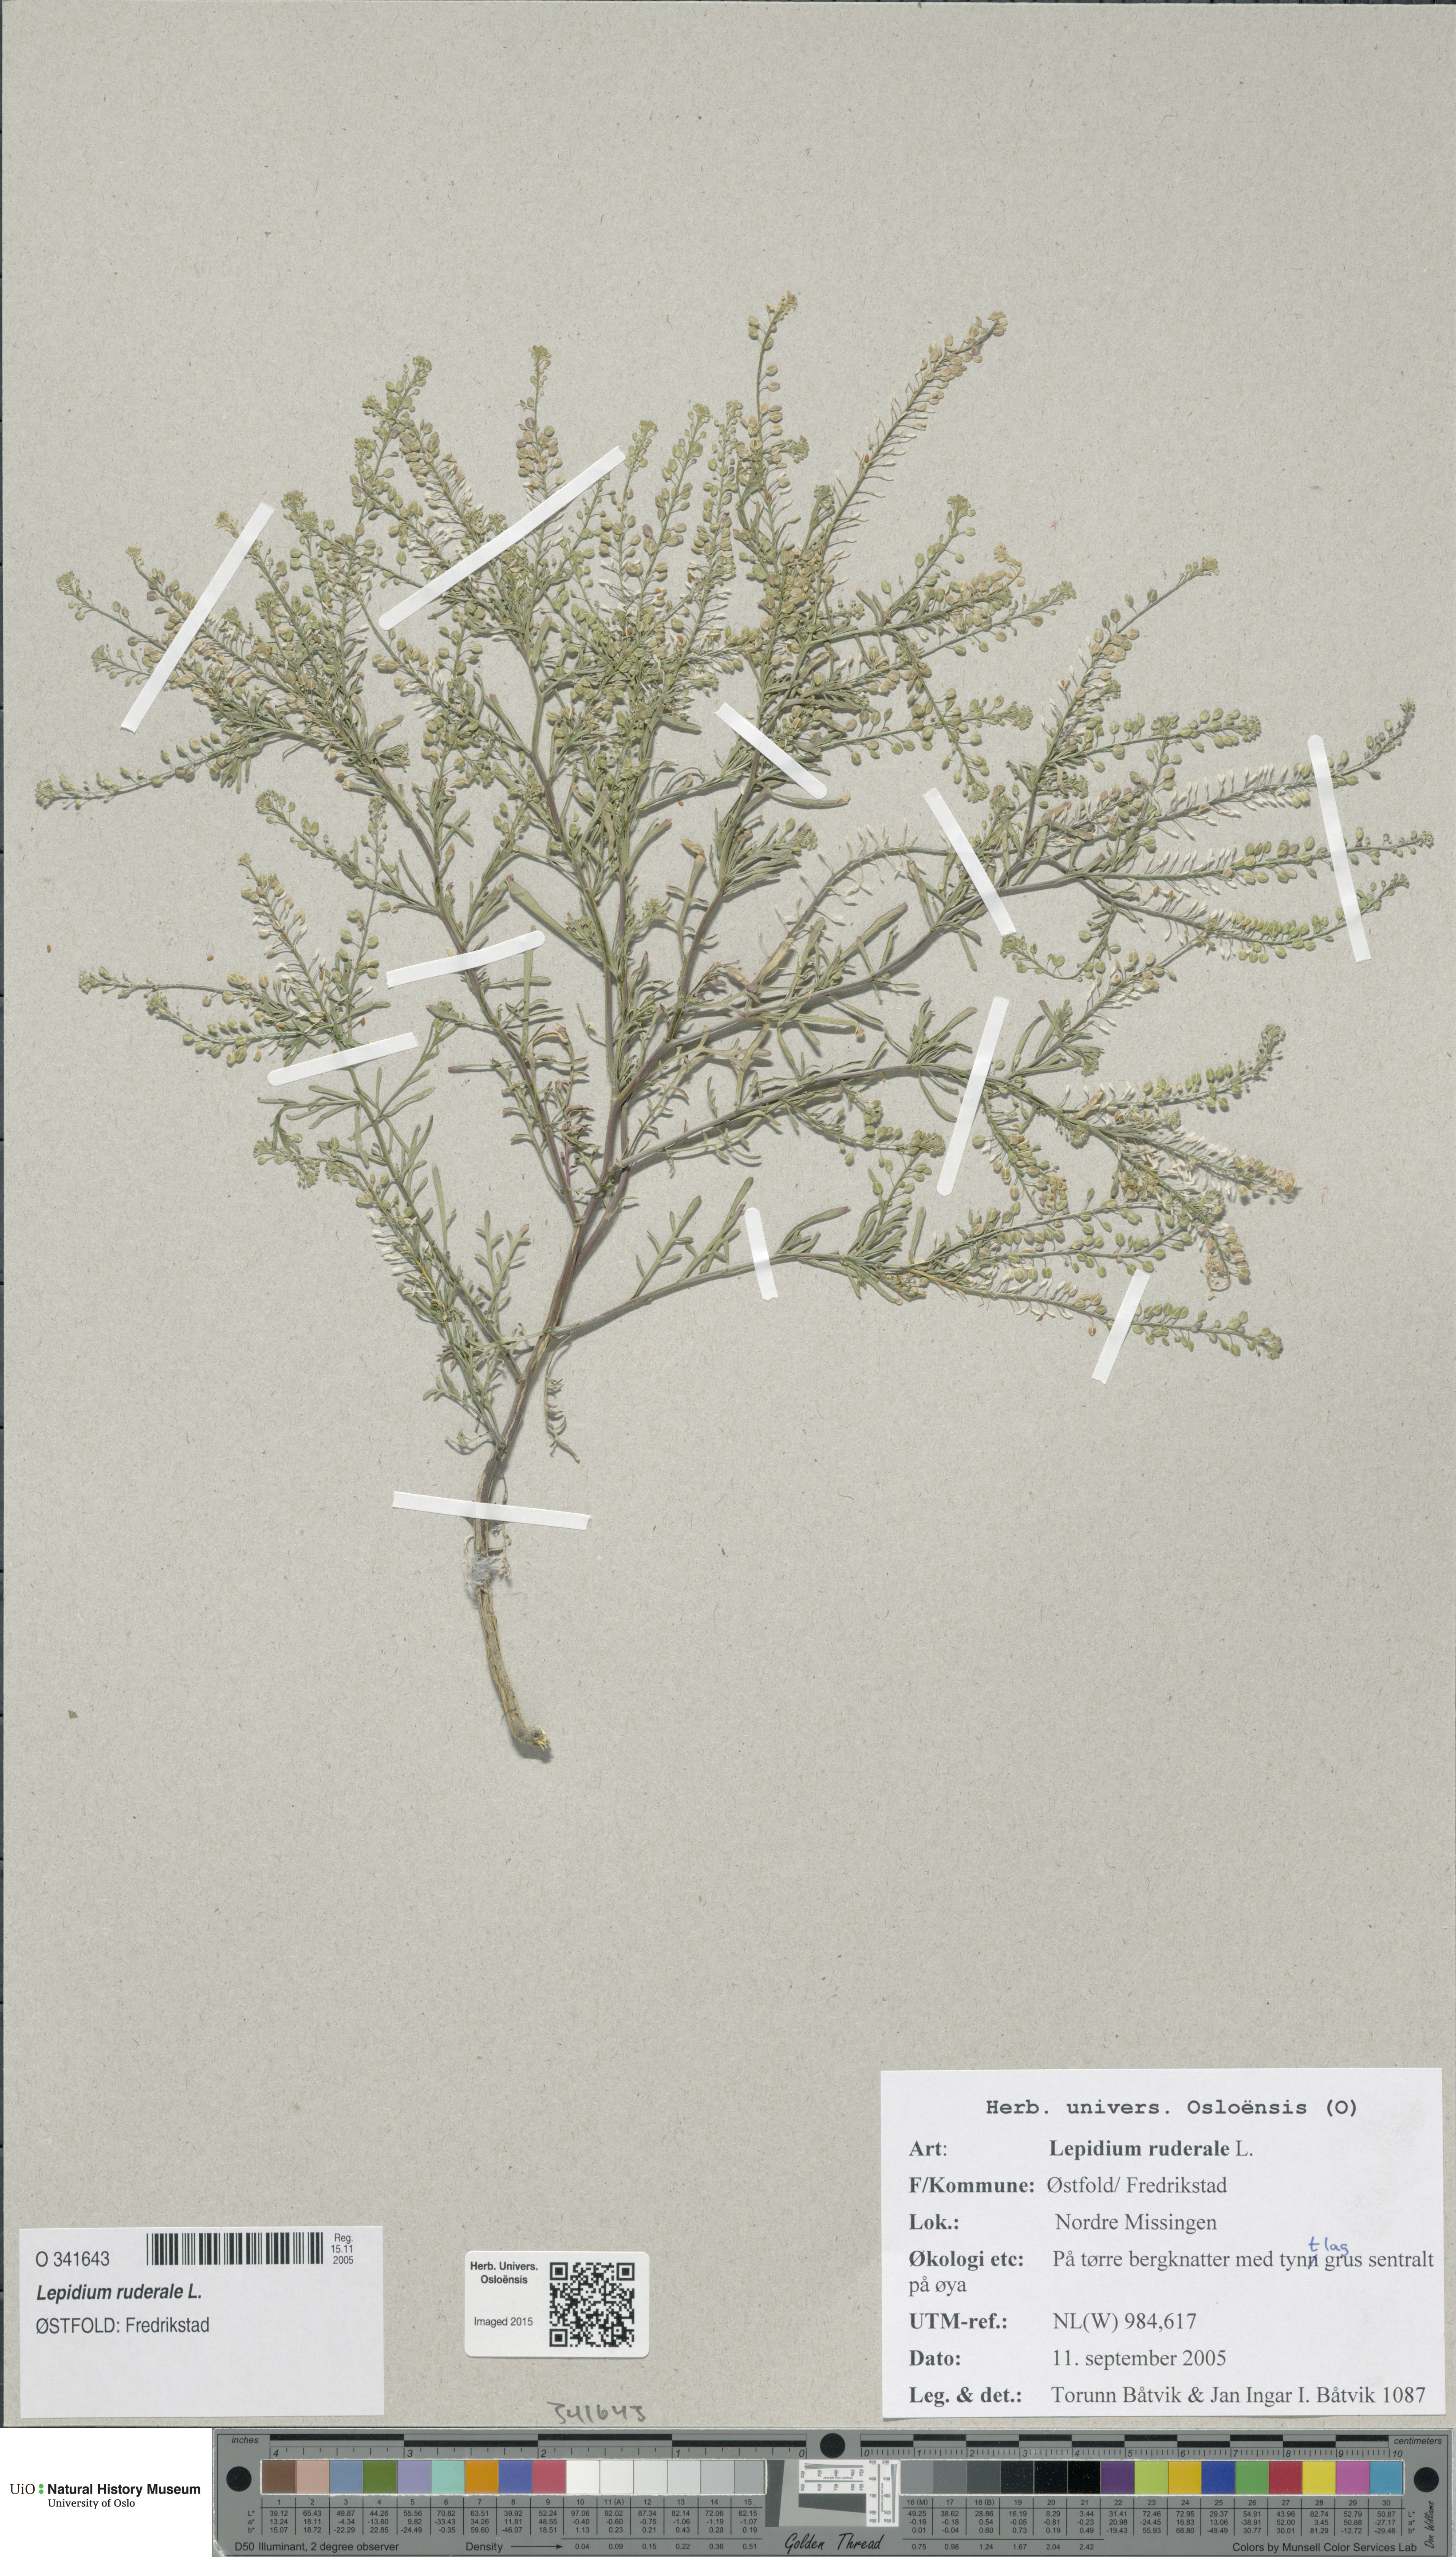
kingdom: Plantae
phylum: Tracheophyta
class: Magnoliopsida
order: Brassicales
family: Brassicaceae
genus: Lepidium
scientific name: Lepidium ruderale
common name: Narrow-leaved pepperwort
